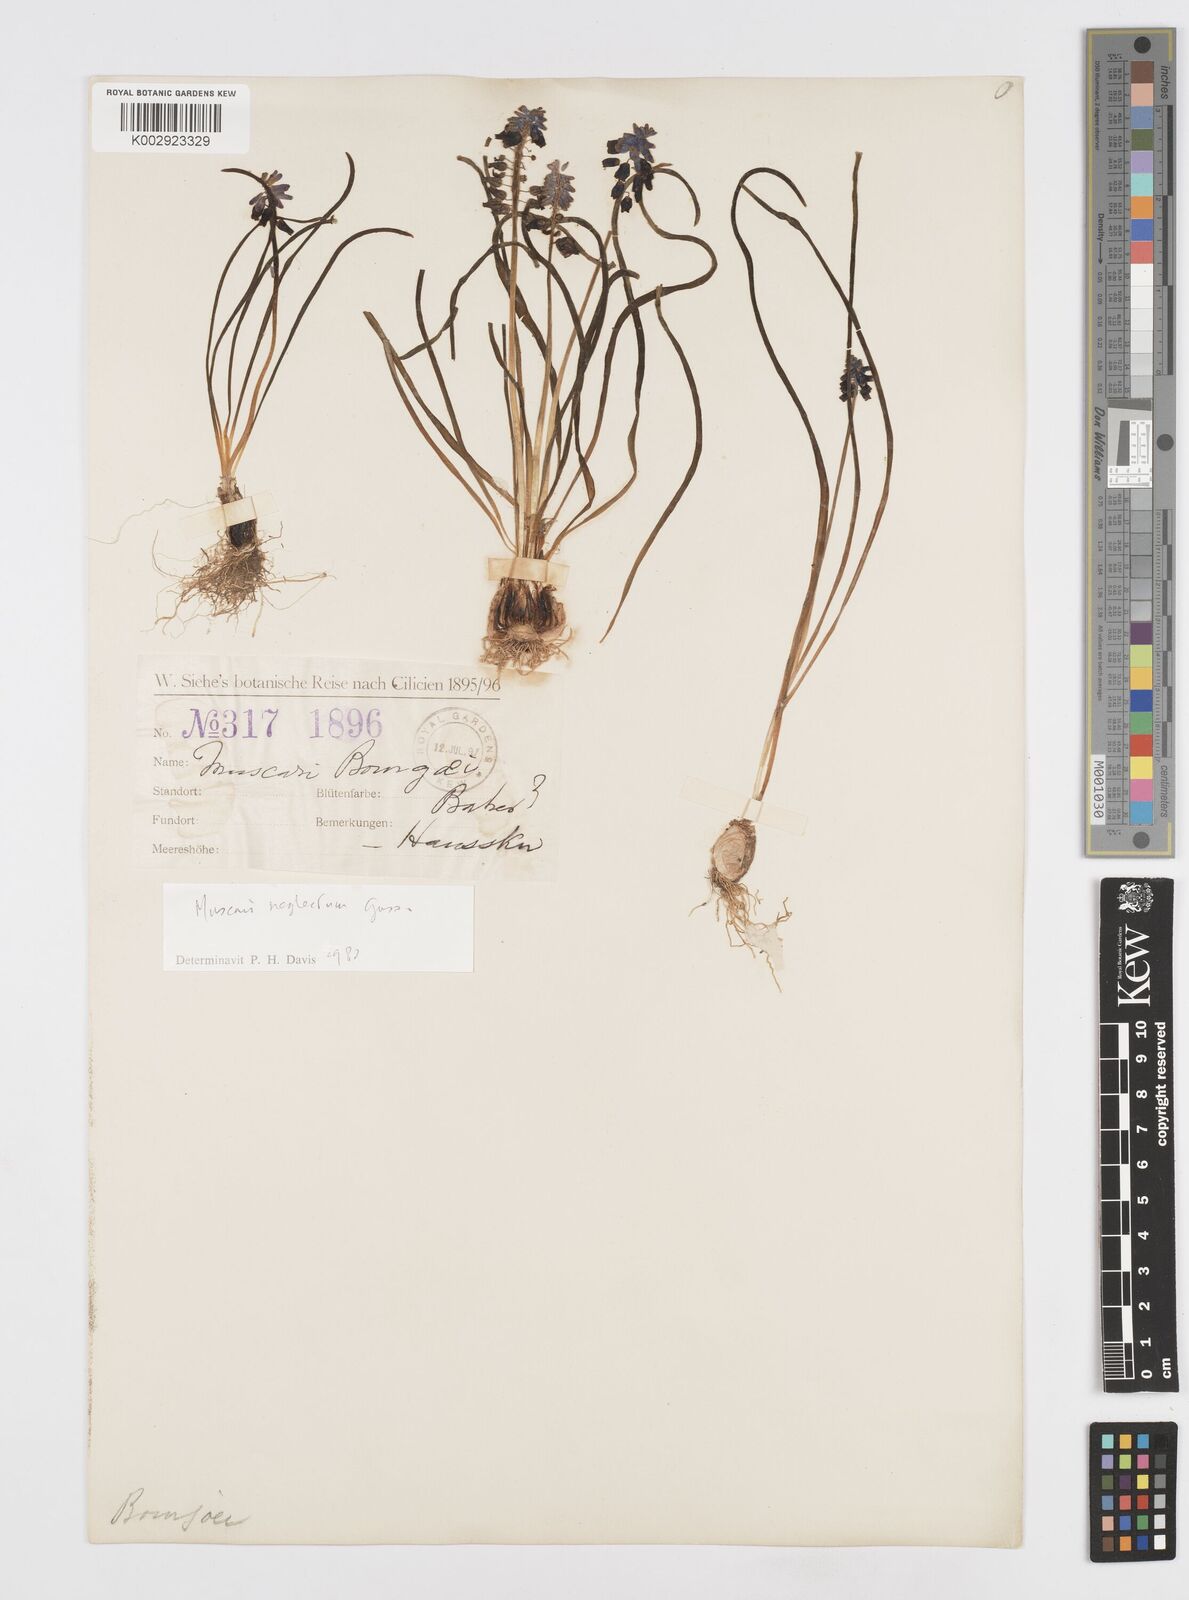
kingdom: Plantae
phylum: Tracheophyta
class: Liliopsida
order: Asparagales
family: Asparagaceae
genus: Muscari
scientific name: Muscari neglectum
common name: Grape-hyacinth
